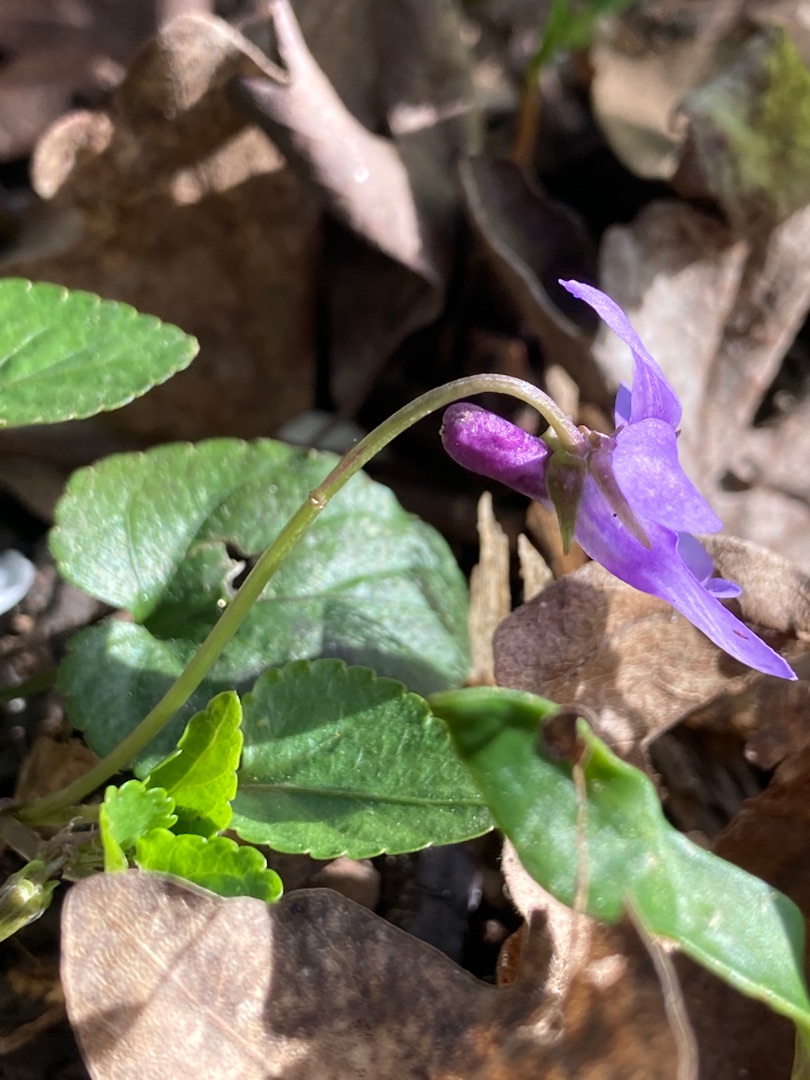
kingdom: Plantae
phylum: Tracheophyta
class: Magnoliopsida
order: Malpighiales
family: Violaceae
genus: Viola
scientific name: Viola reichenbachiana
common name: Skov-viol
